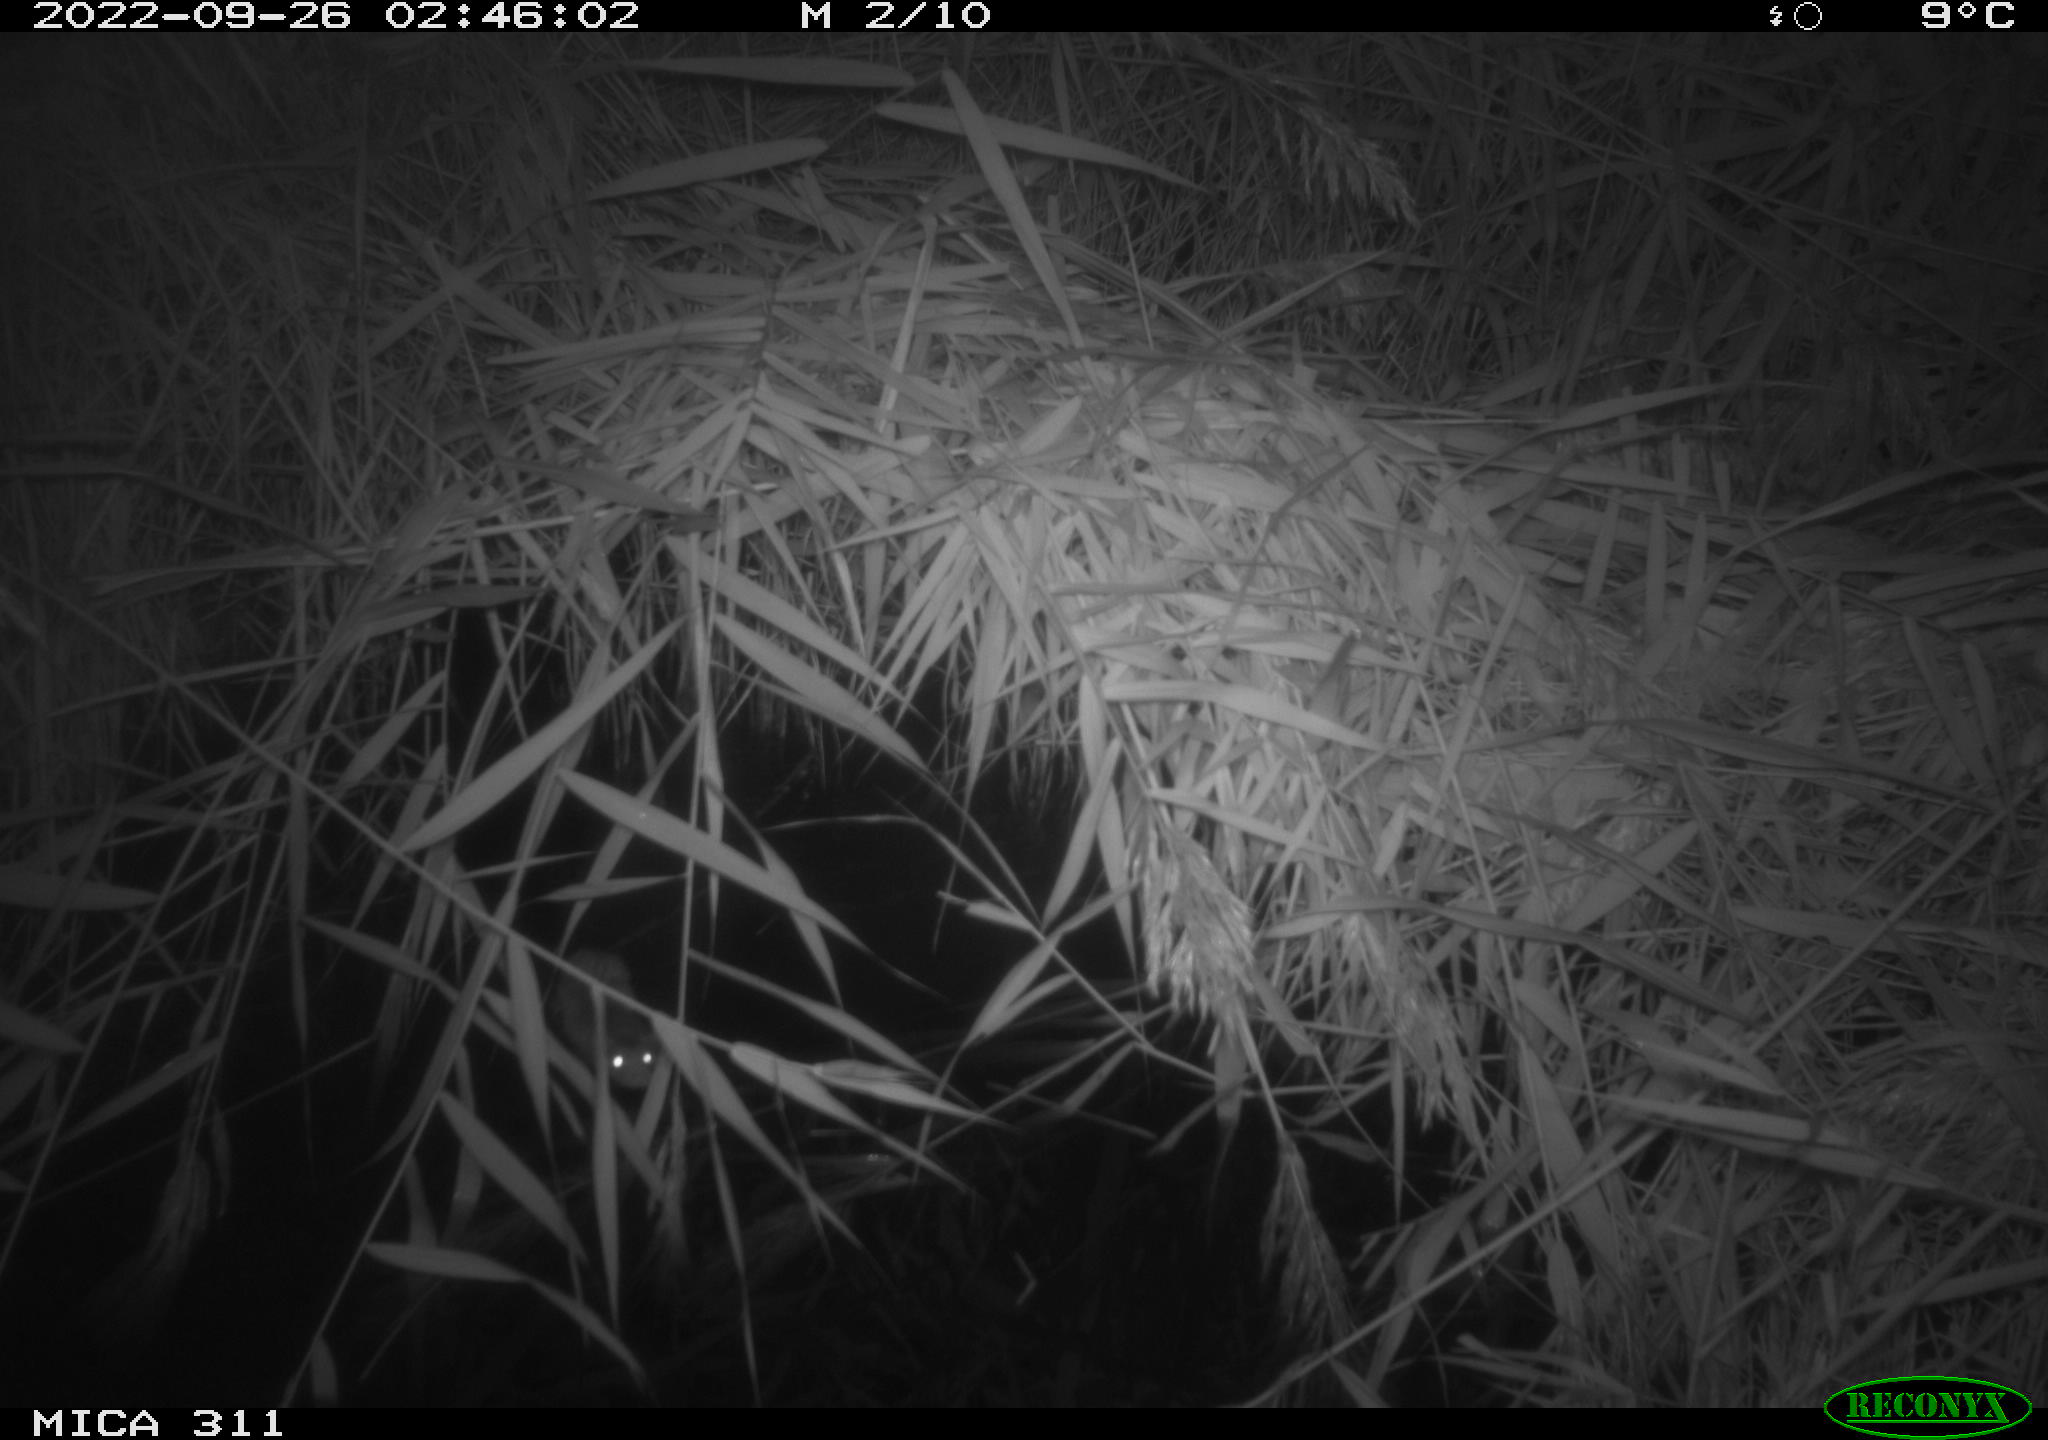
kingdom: Animalia
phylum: Chordata
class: Mammalia
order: Rodentia
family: Muridae
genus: Rattus
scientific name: Rattus norvegicus
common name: Brown rat
